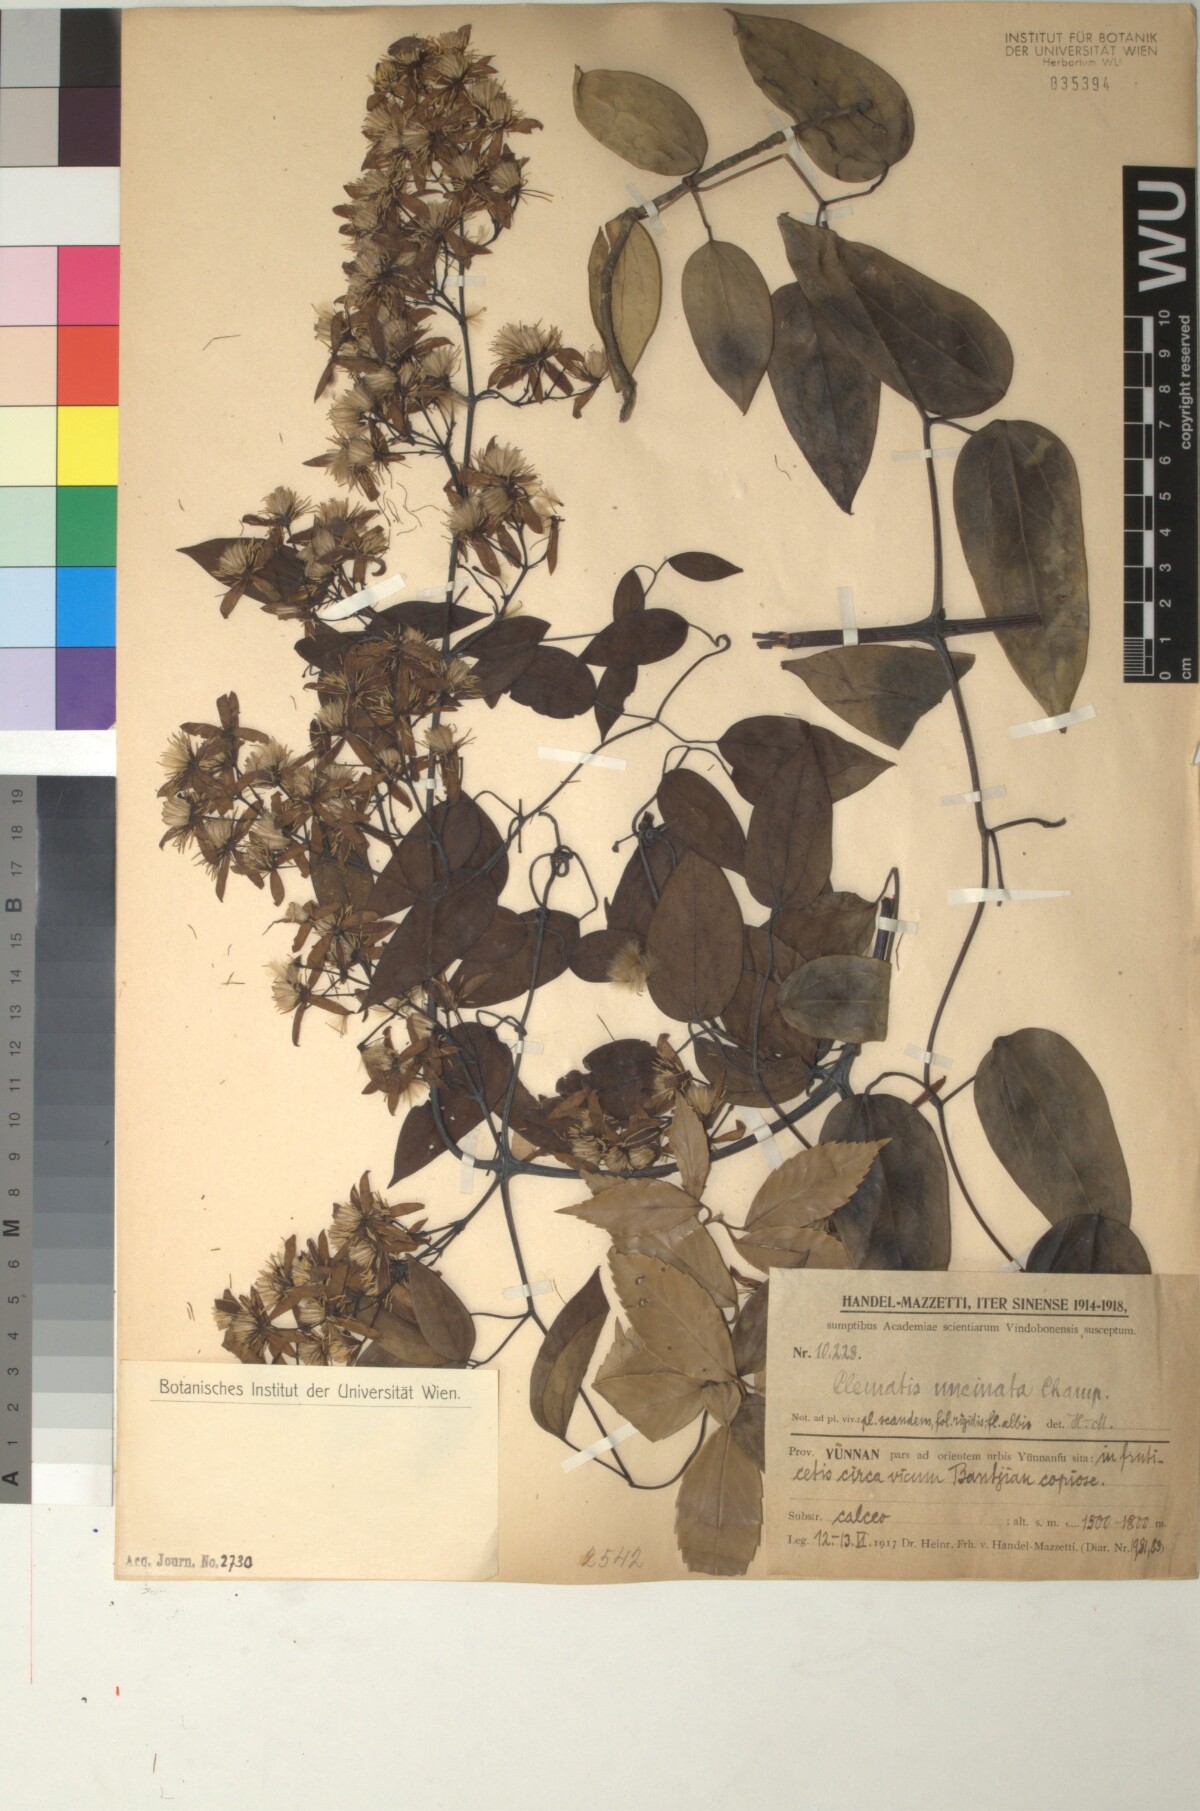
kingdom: Plantae
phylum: Tracheophyta
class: Magnoliopsida
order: Ranunculales
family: Ranunculaceae
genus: Clematis
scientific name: Clematis uncinata
